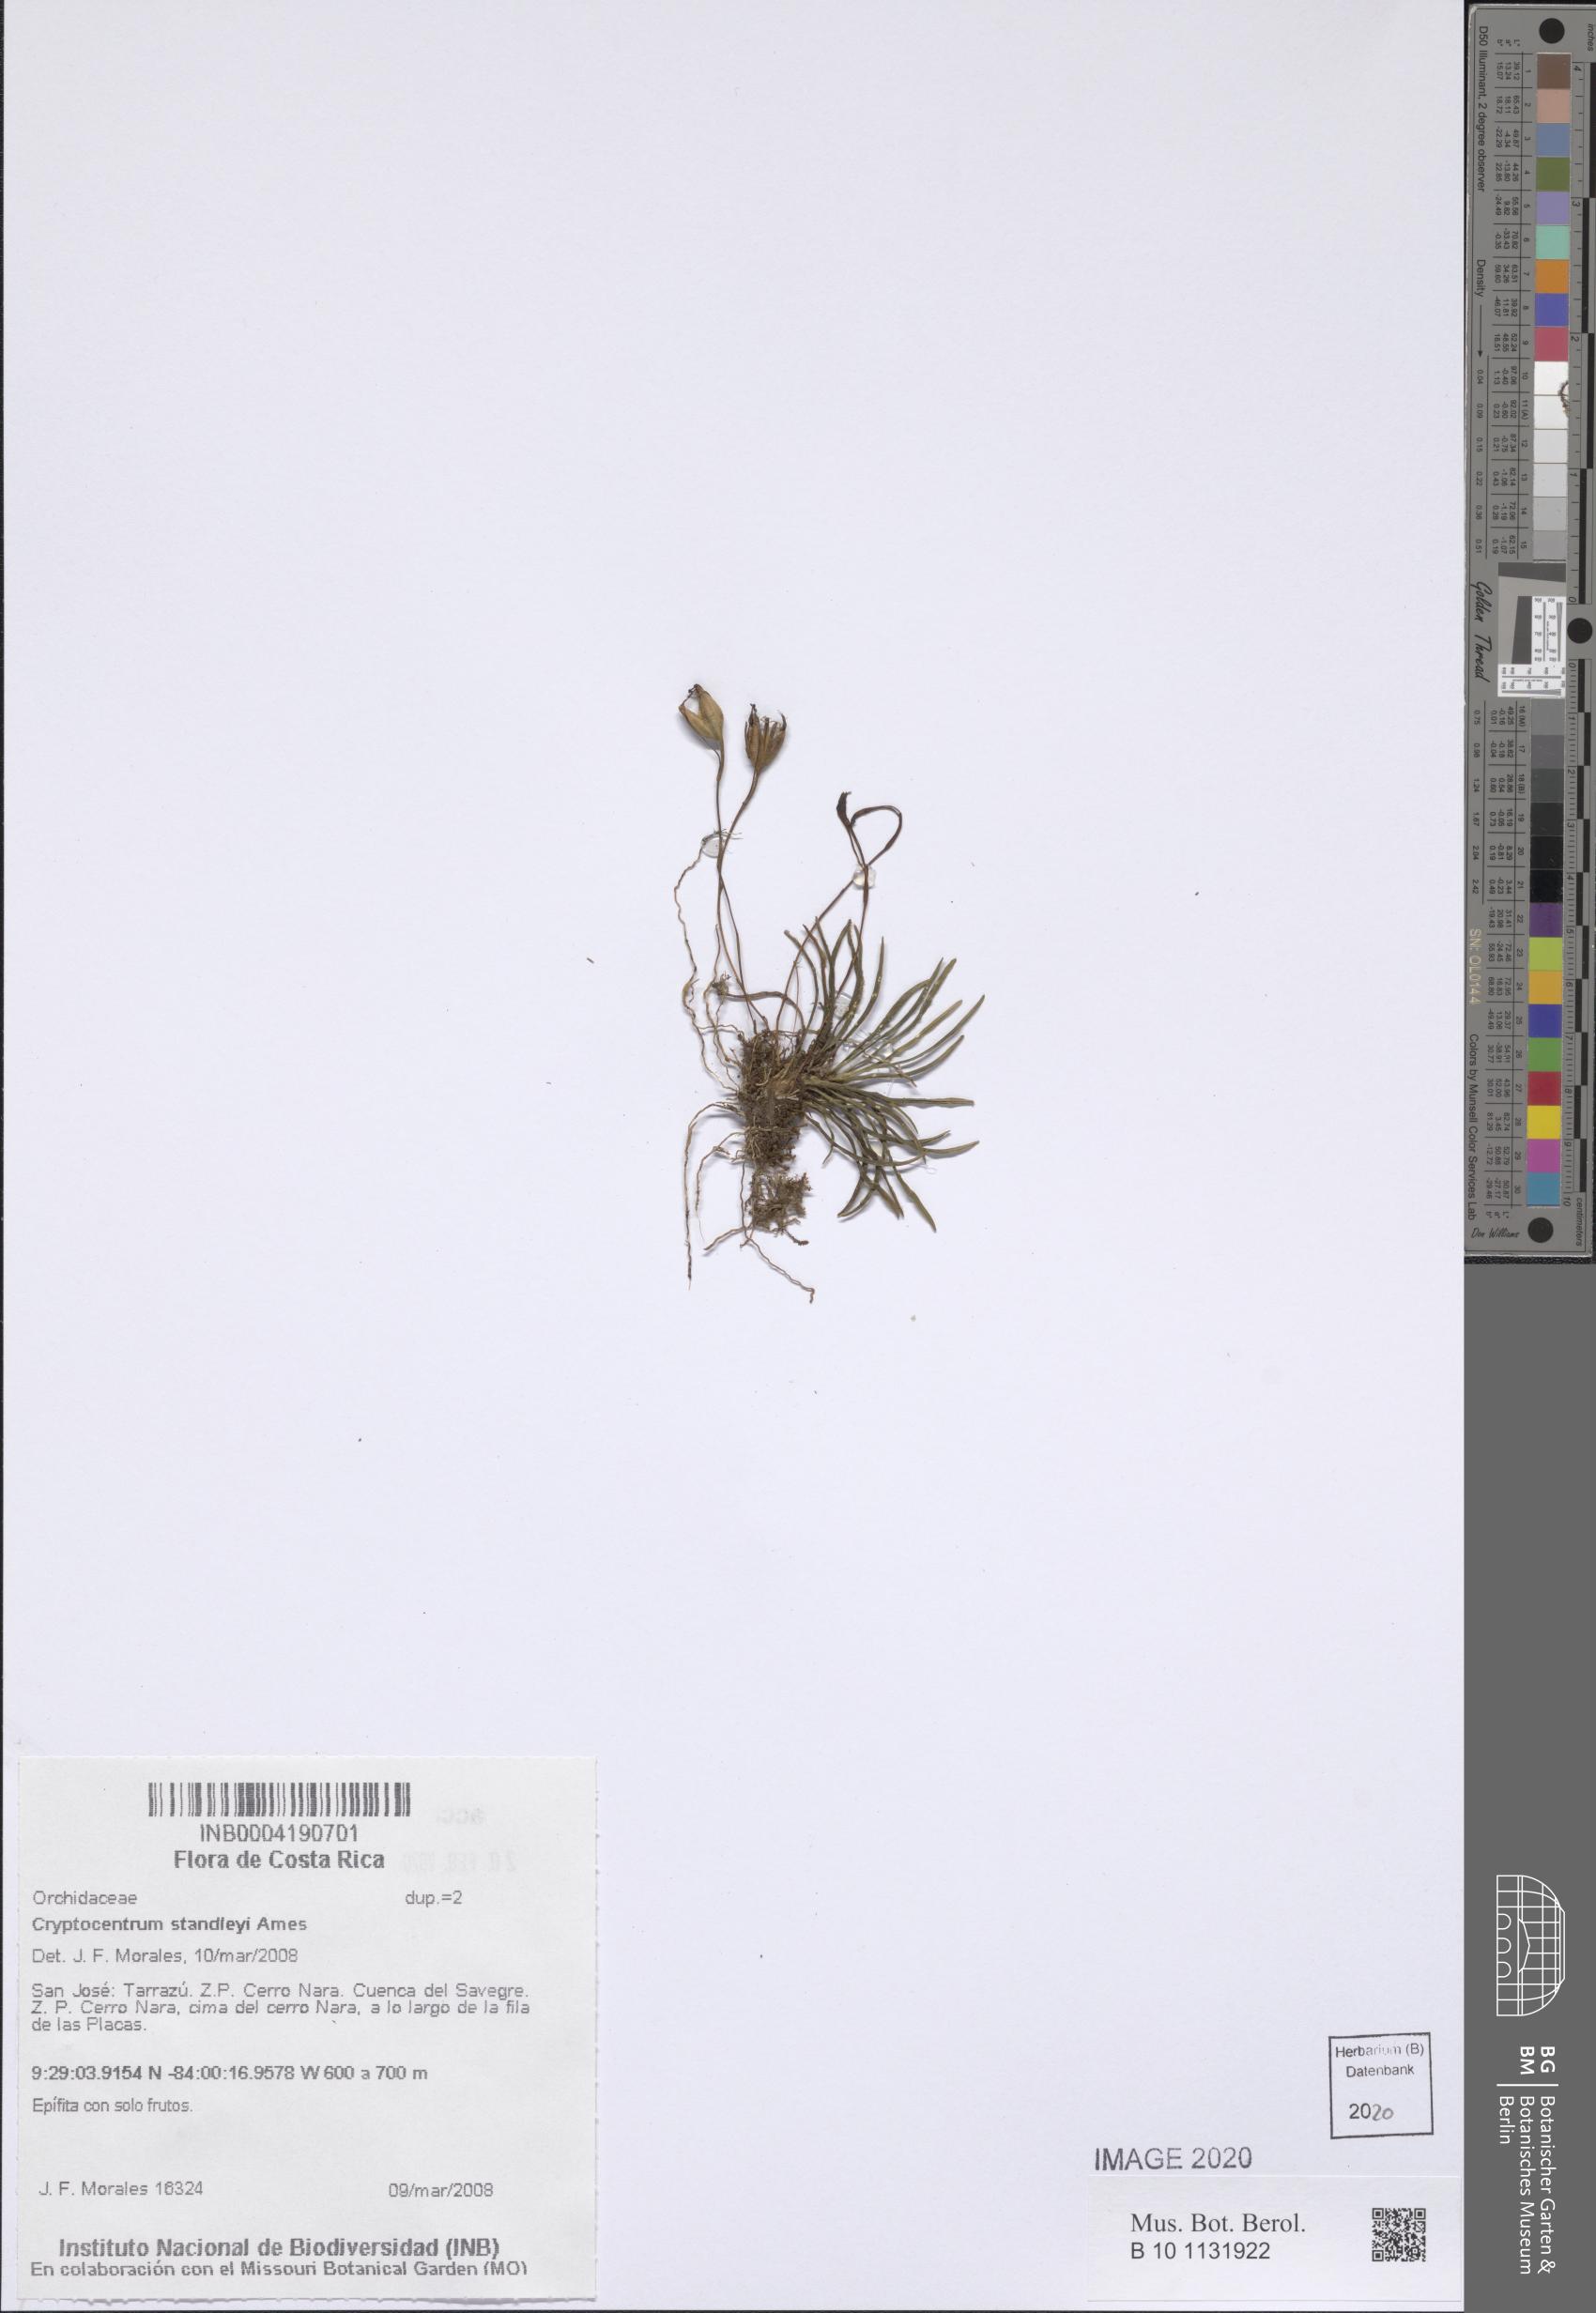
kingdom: Plantae
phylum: Tracheophyta
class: Liliopsida
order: Asparagales
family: Orchidaceae
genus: Maxillaria
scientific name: Maxillaria standleyi
